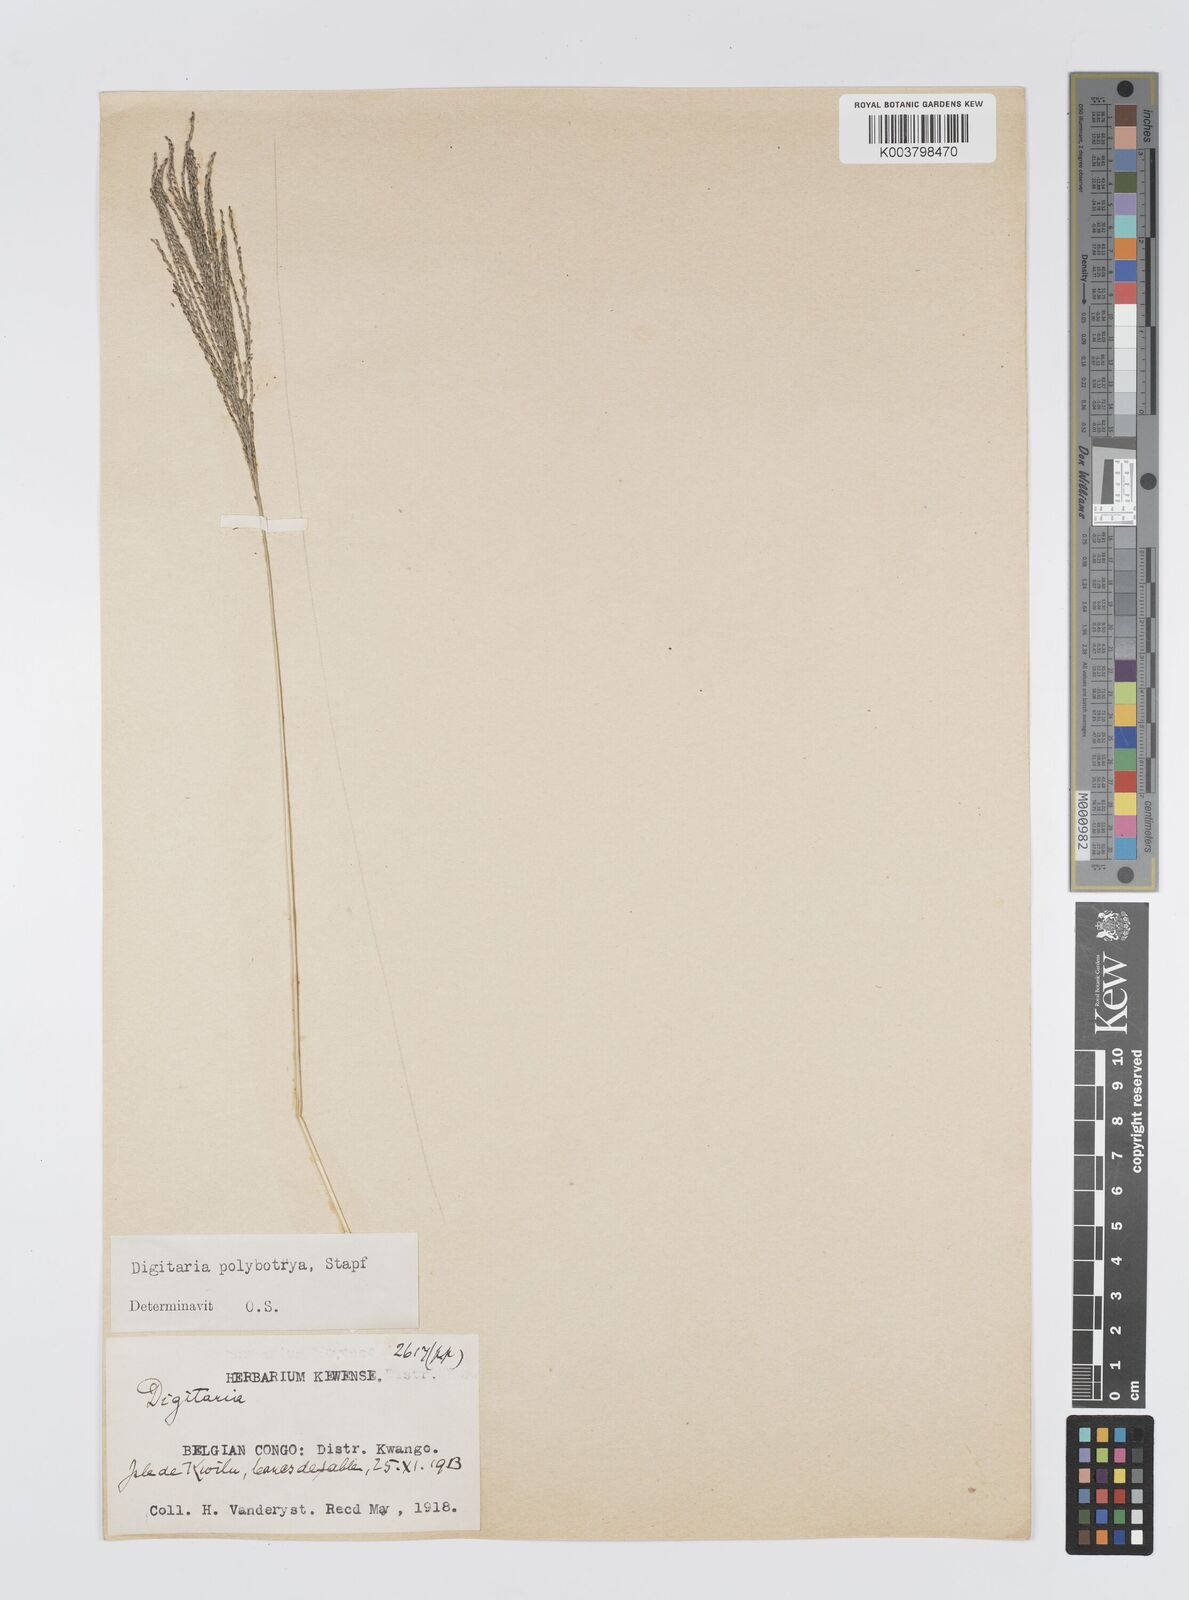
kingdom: Plantae
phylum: Tracheophyta
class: Liliopsida
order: Poales
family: Poaceae
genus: Digitaria
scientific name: Digitaria leptorhachis
